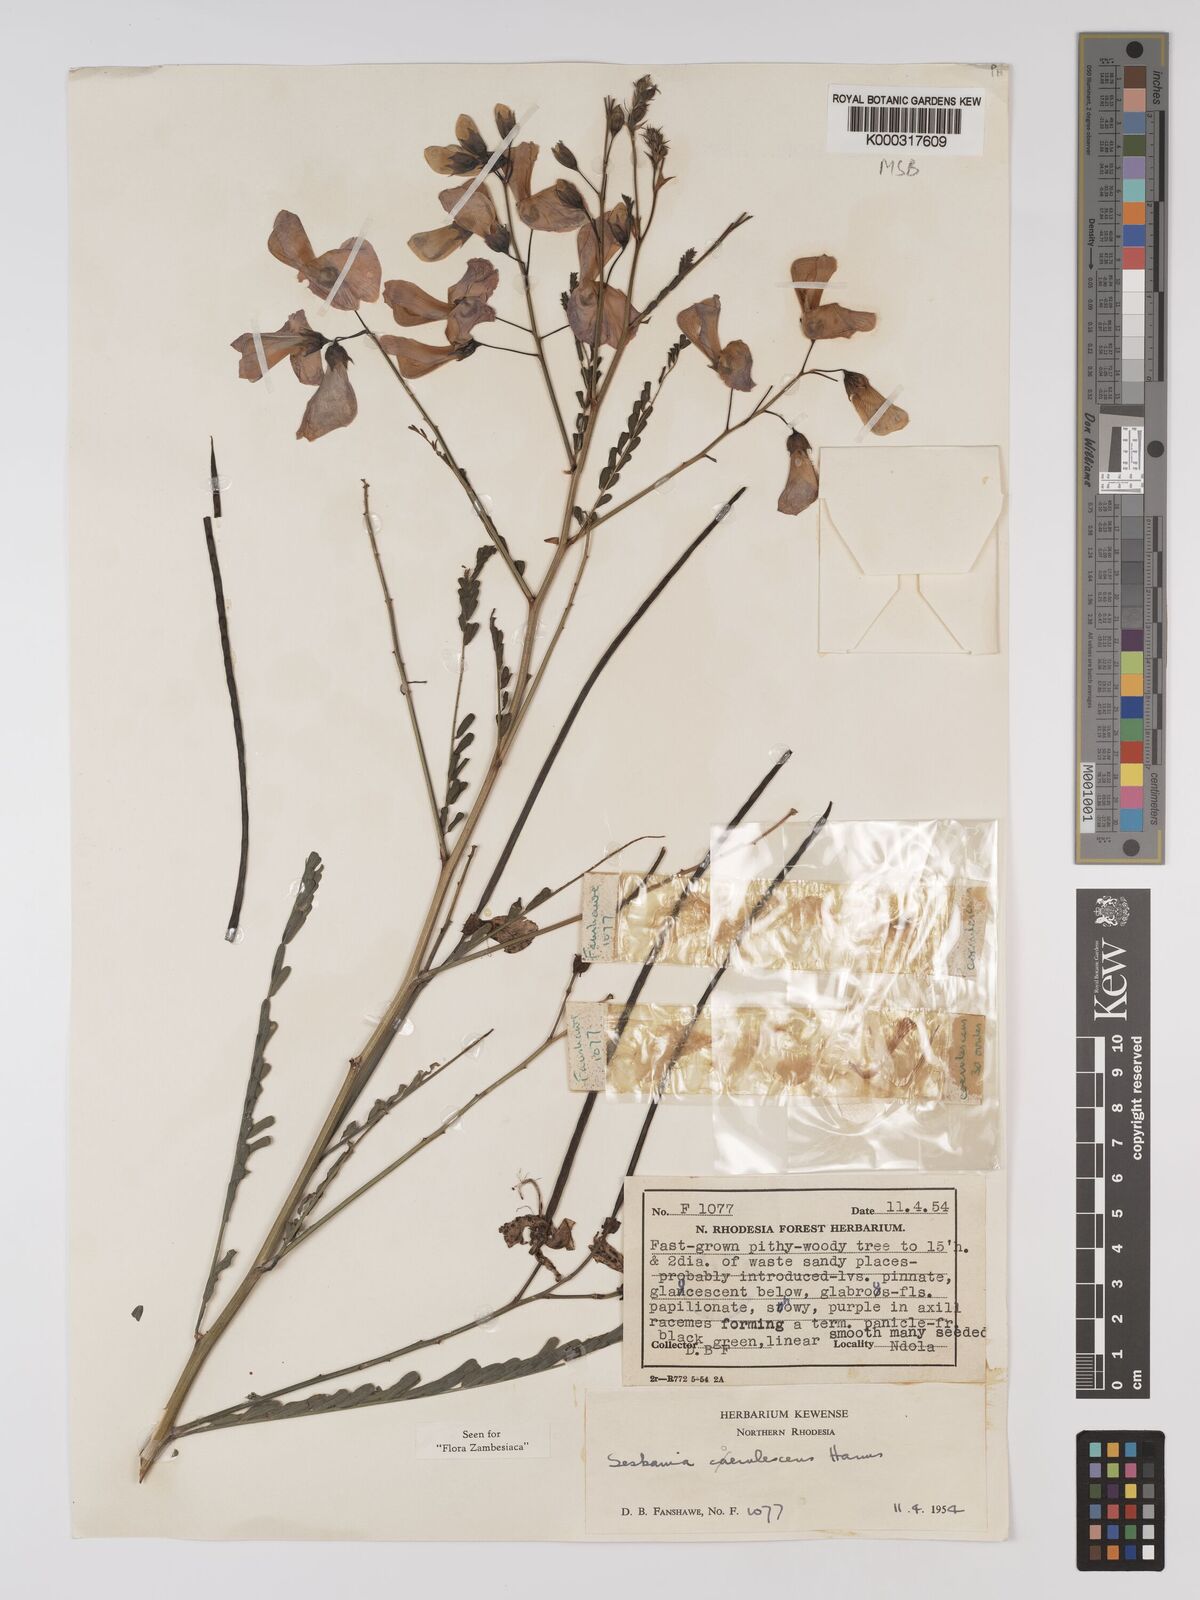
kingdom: Plantae
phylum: Tracheophyta
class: Magnoliopsida
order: Fabales
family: Fabaceae
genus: Sesbania
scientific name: Sesbania coerulescens
